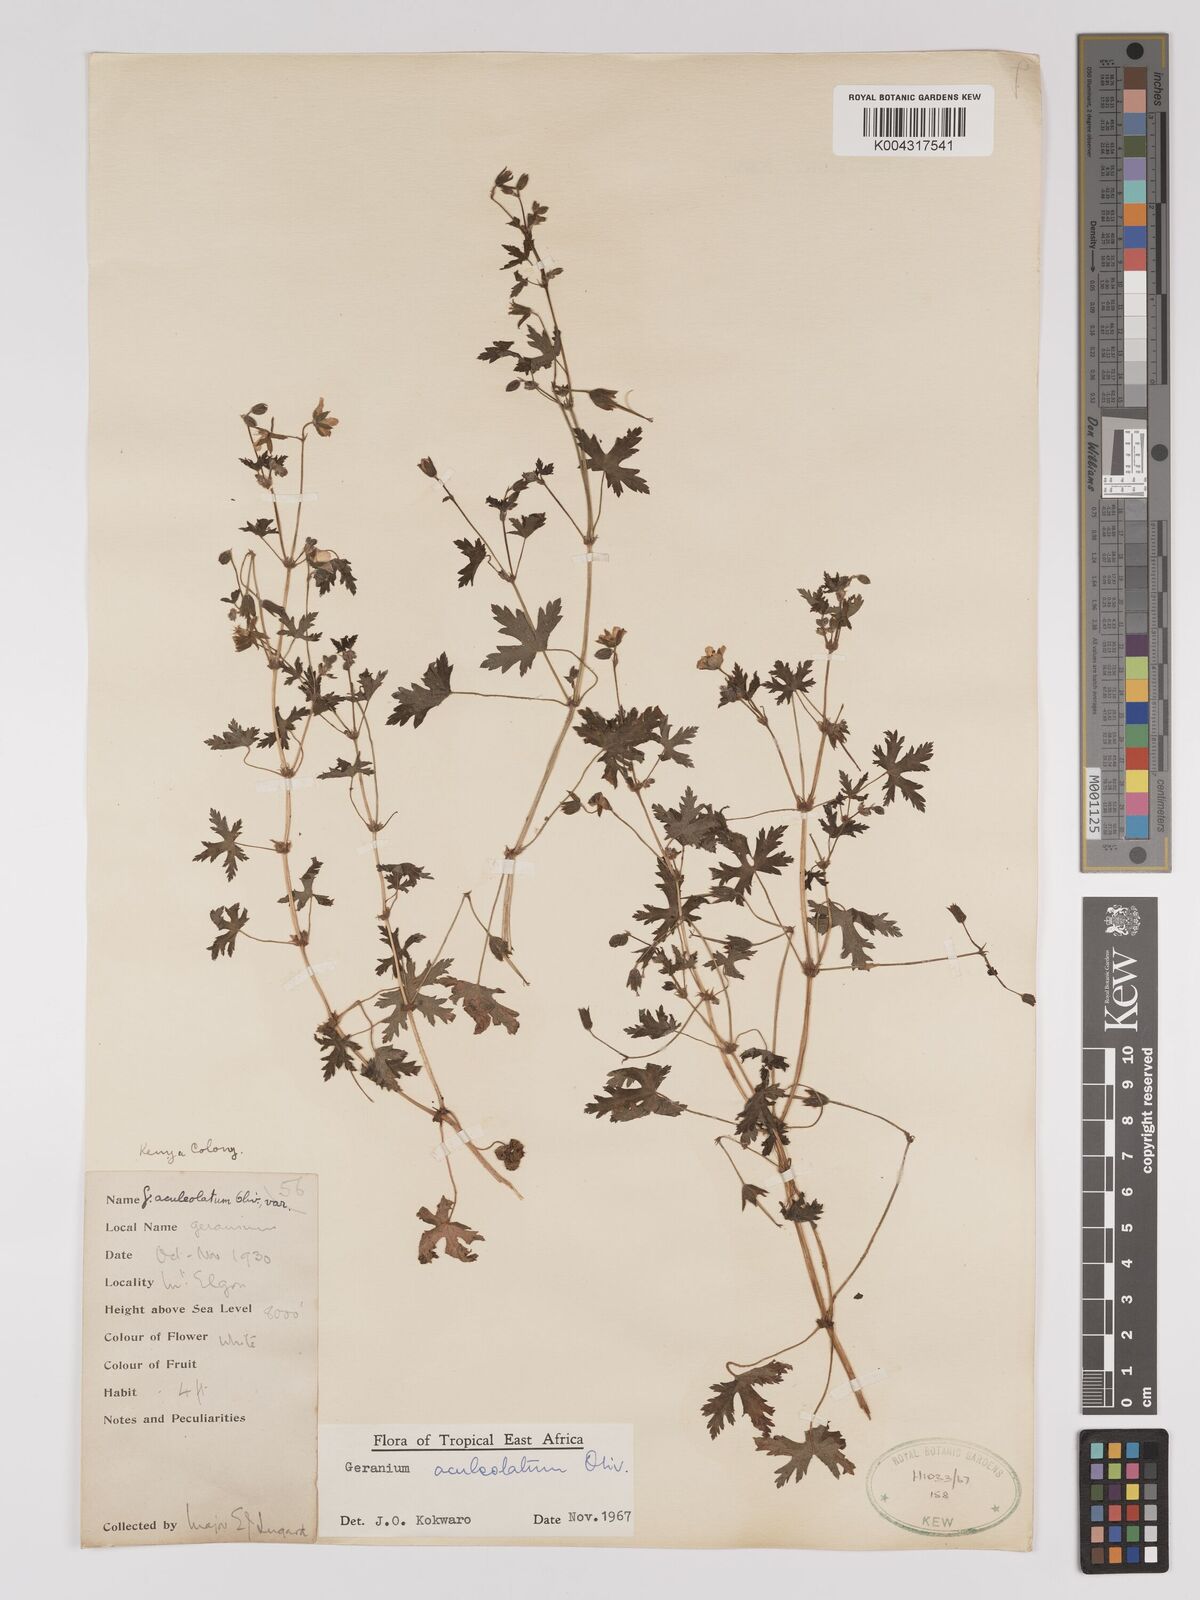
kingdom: Plantae
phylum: Tracheophyta
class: Magnoliopsida
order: Geraniales
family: Geraniaceae
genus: Geranium
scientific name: Geranium aculeolatum
